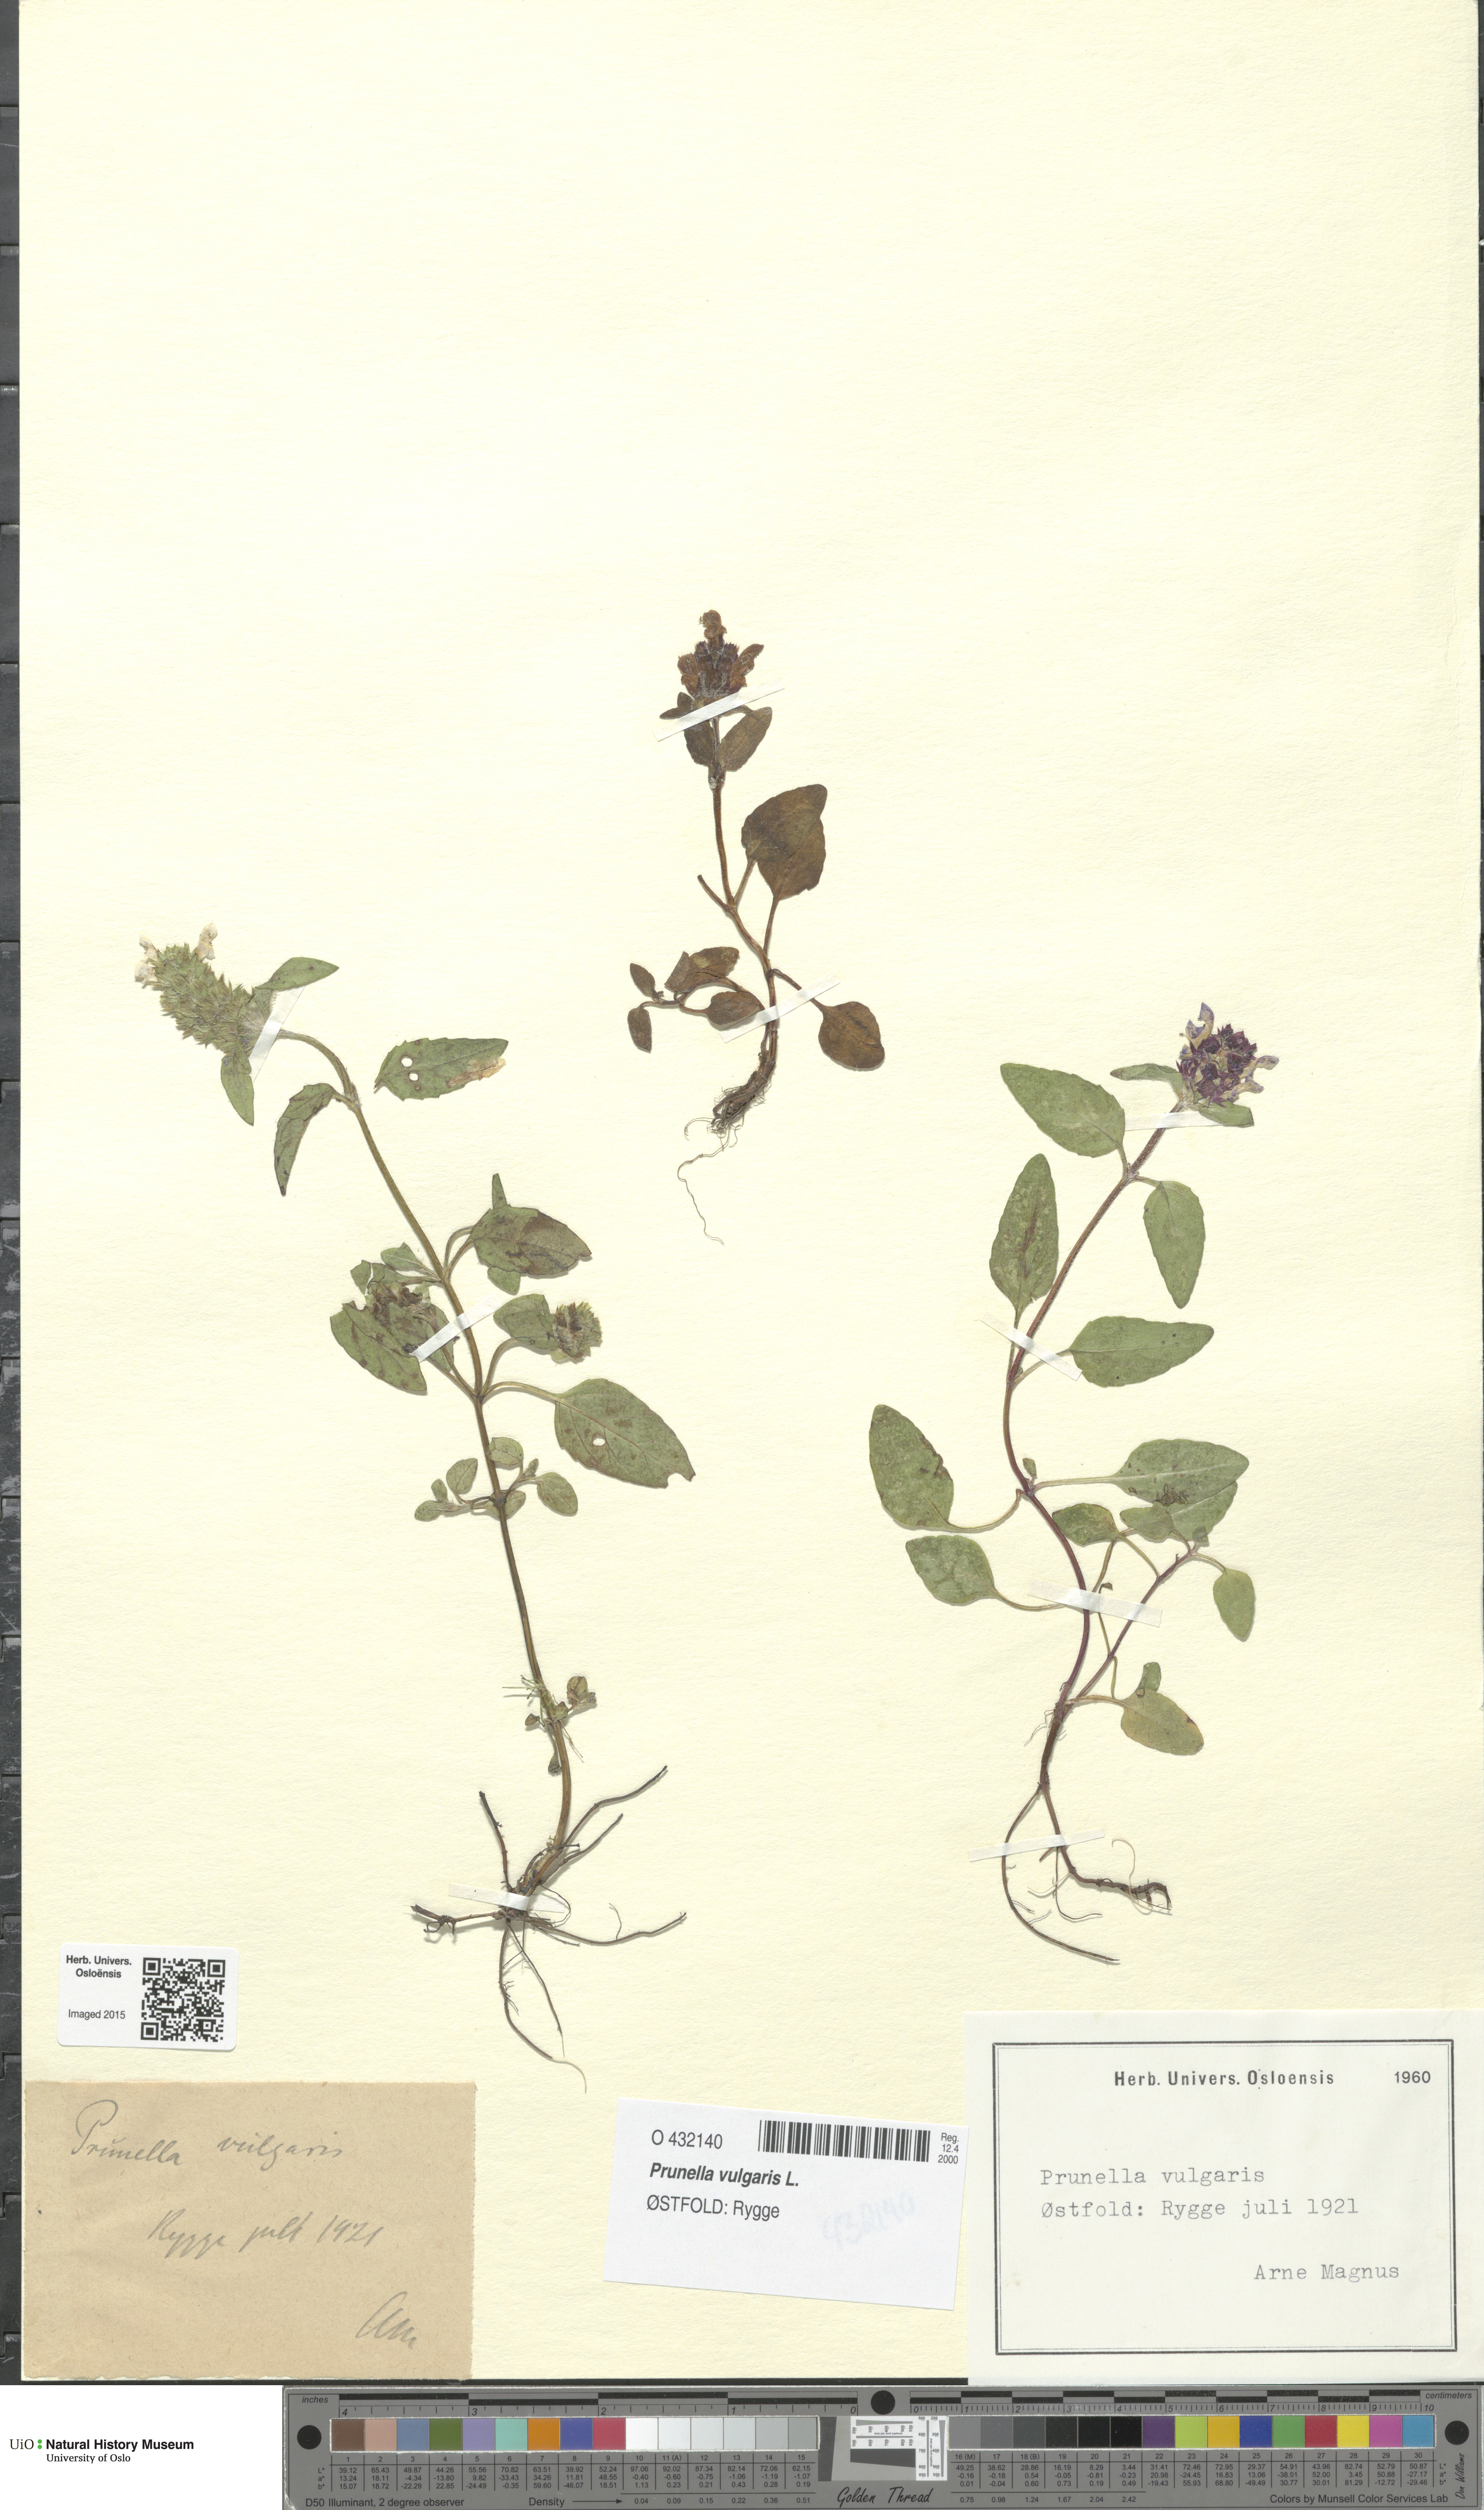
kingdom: Plantae
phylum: Tracheophyta
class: Magnoliopsida
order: Lamiales
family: Lamiaceae
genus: Prunella
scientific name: Prunella vulgaris
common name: Heal-all
